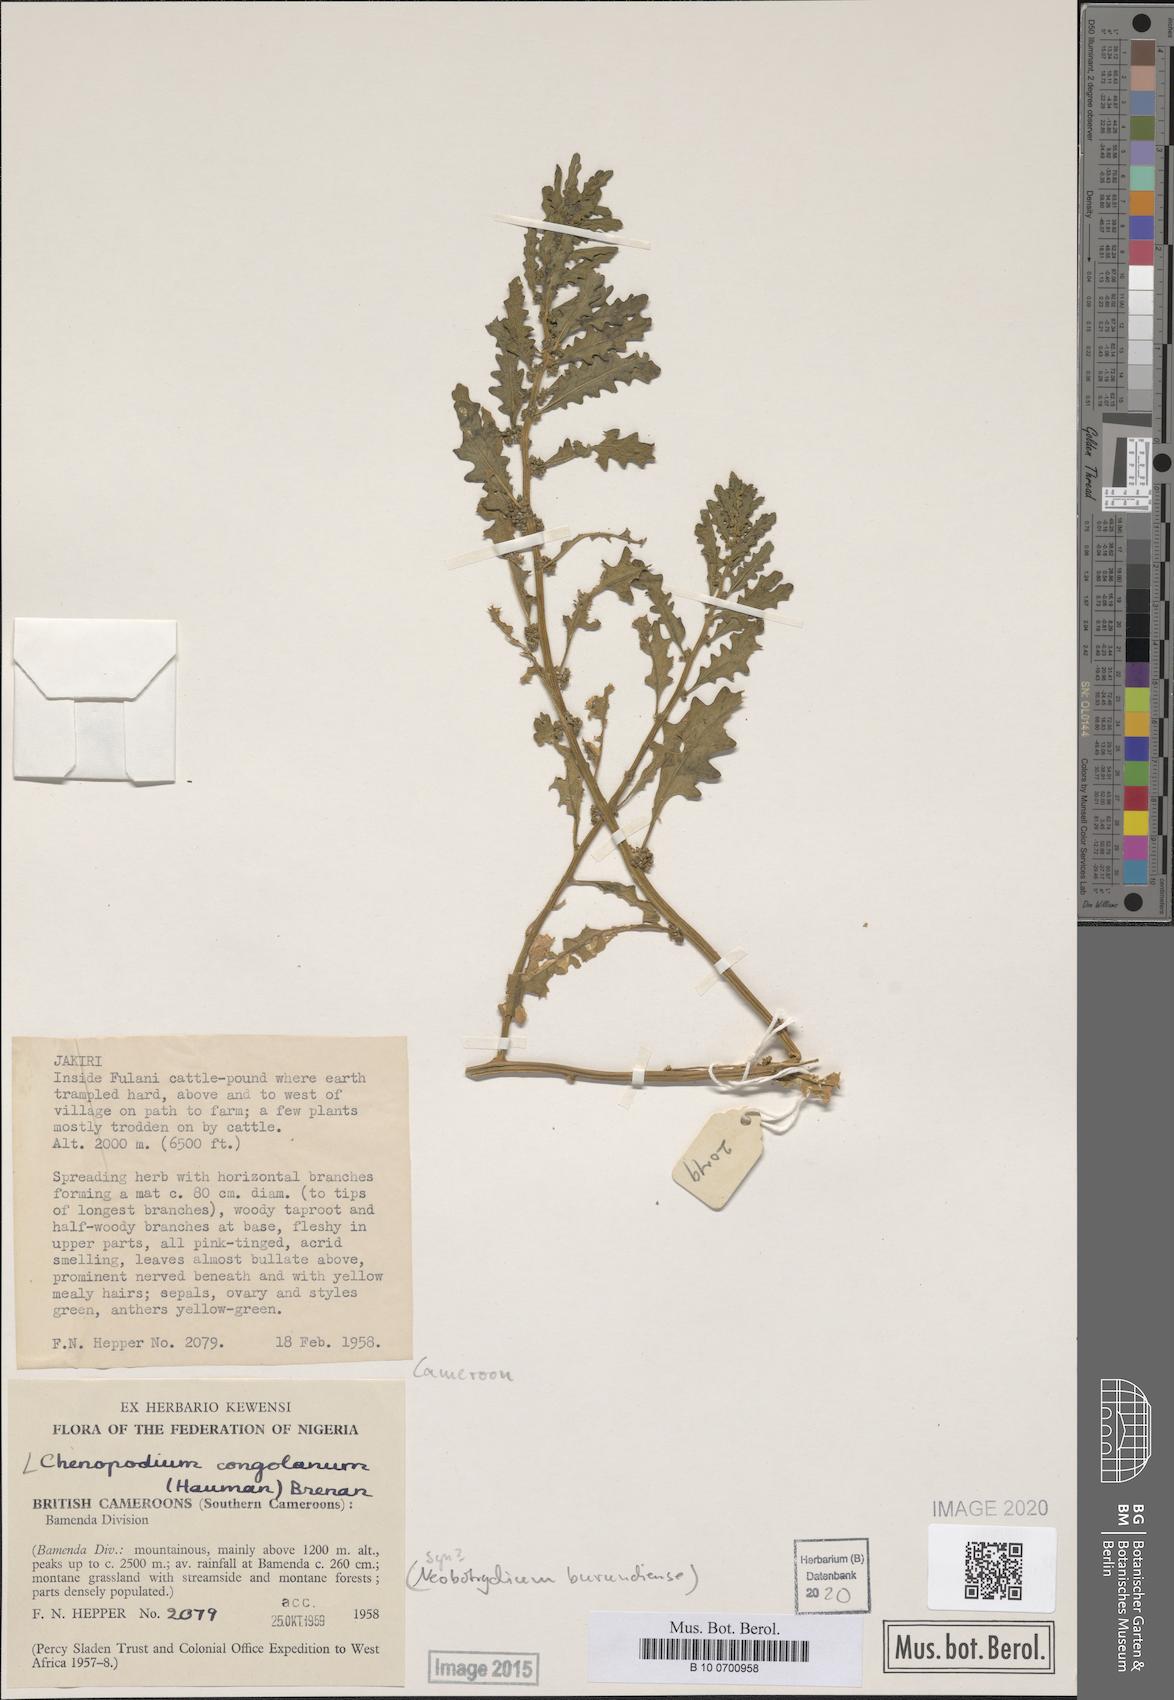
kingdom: Plantae
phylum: Tracheophyta
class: Magnoliopsida
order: Caryophyllales
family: Amaranthaceae
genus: Dysphania
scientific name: Dysphania congolana
